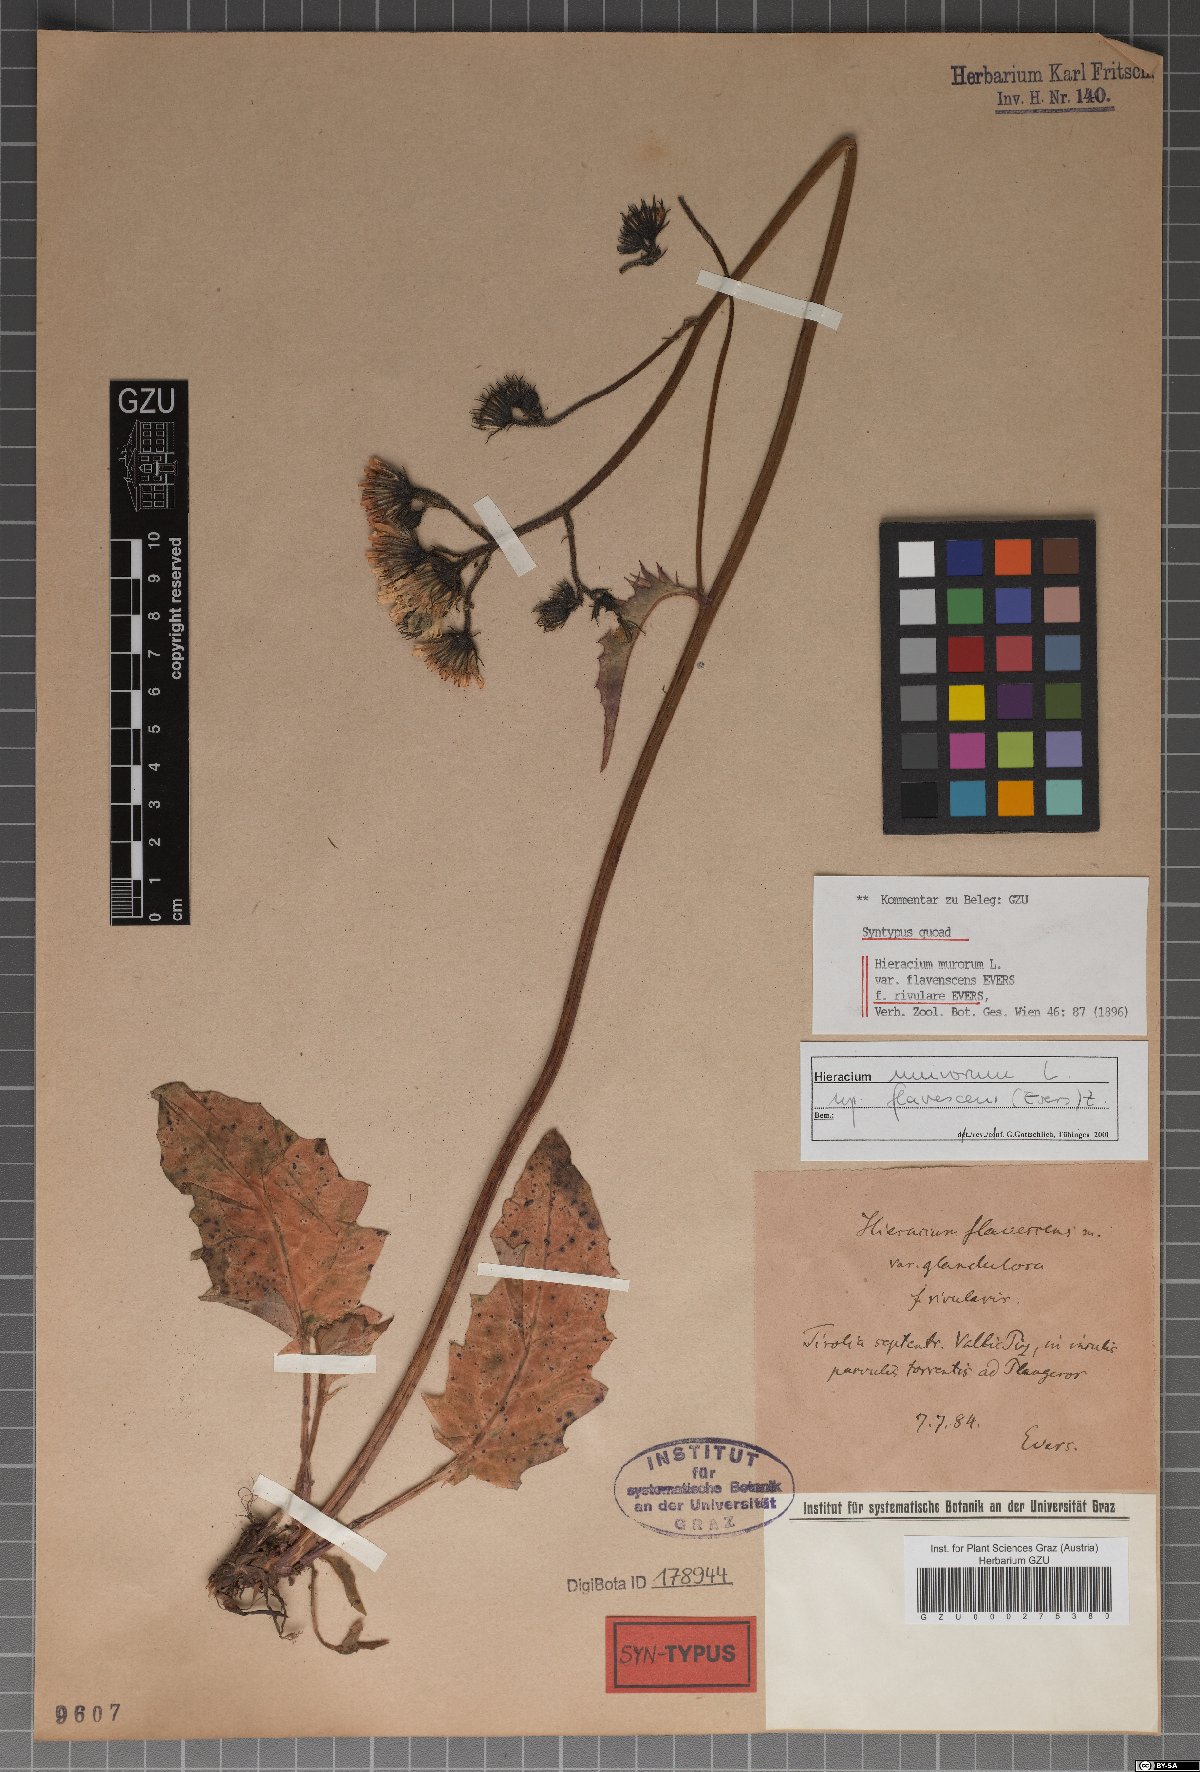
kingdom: Plantae
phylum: Tracheophyta
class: Magnoliopsida
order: Asterales
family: Asteraceae
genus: Hieracium
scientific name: Hieracium murorum
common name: Wall hawkweed
